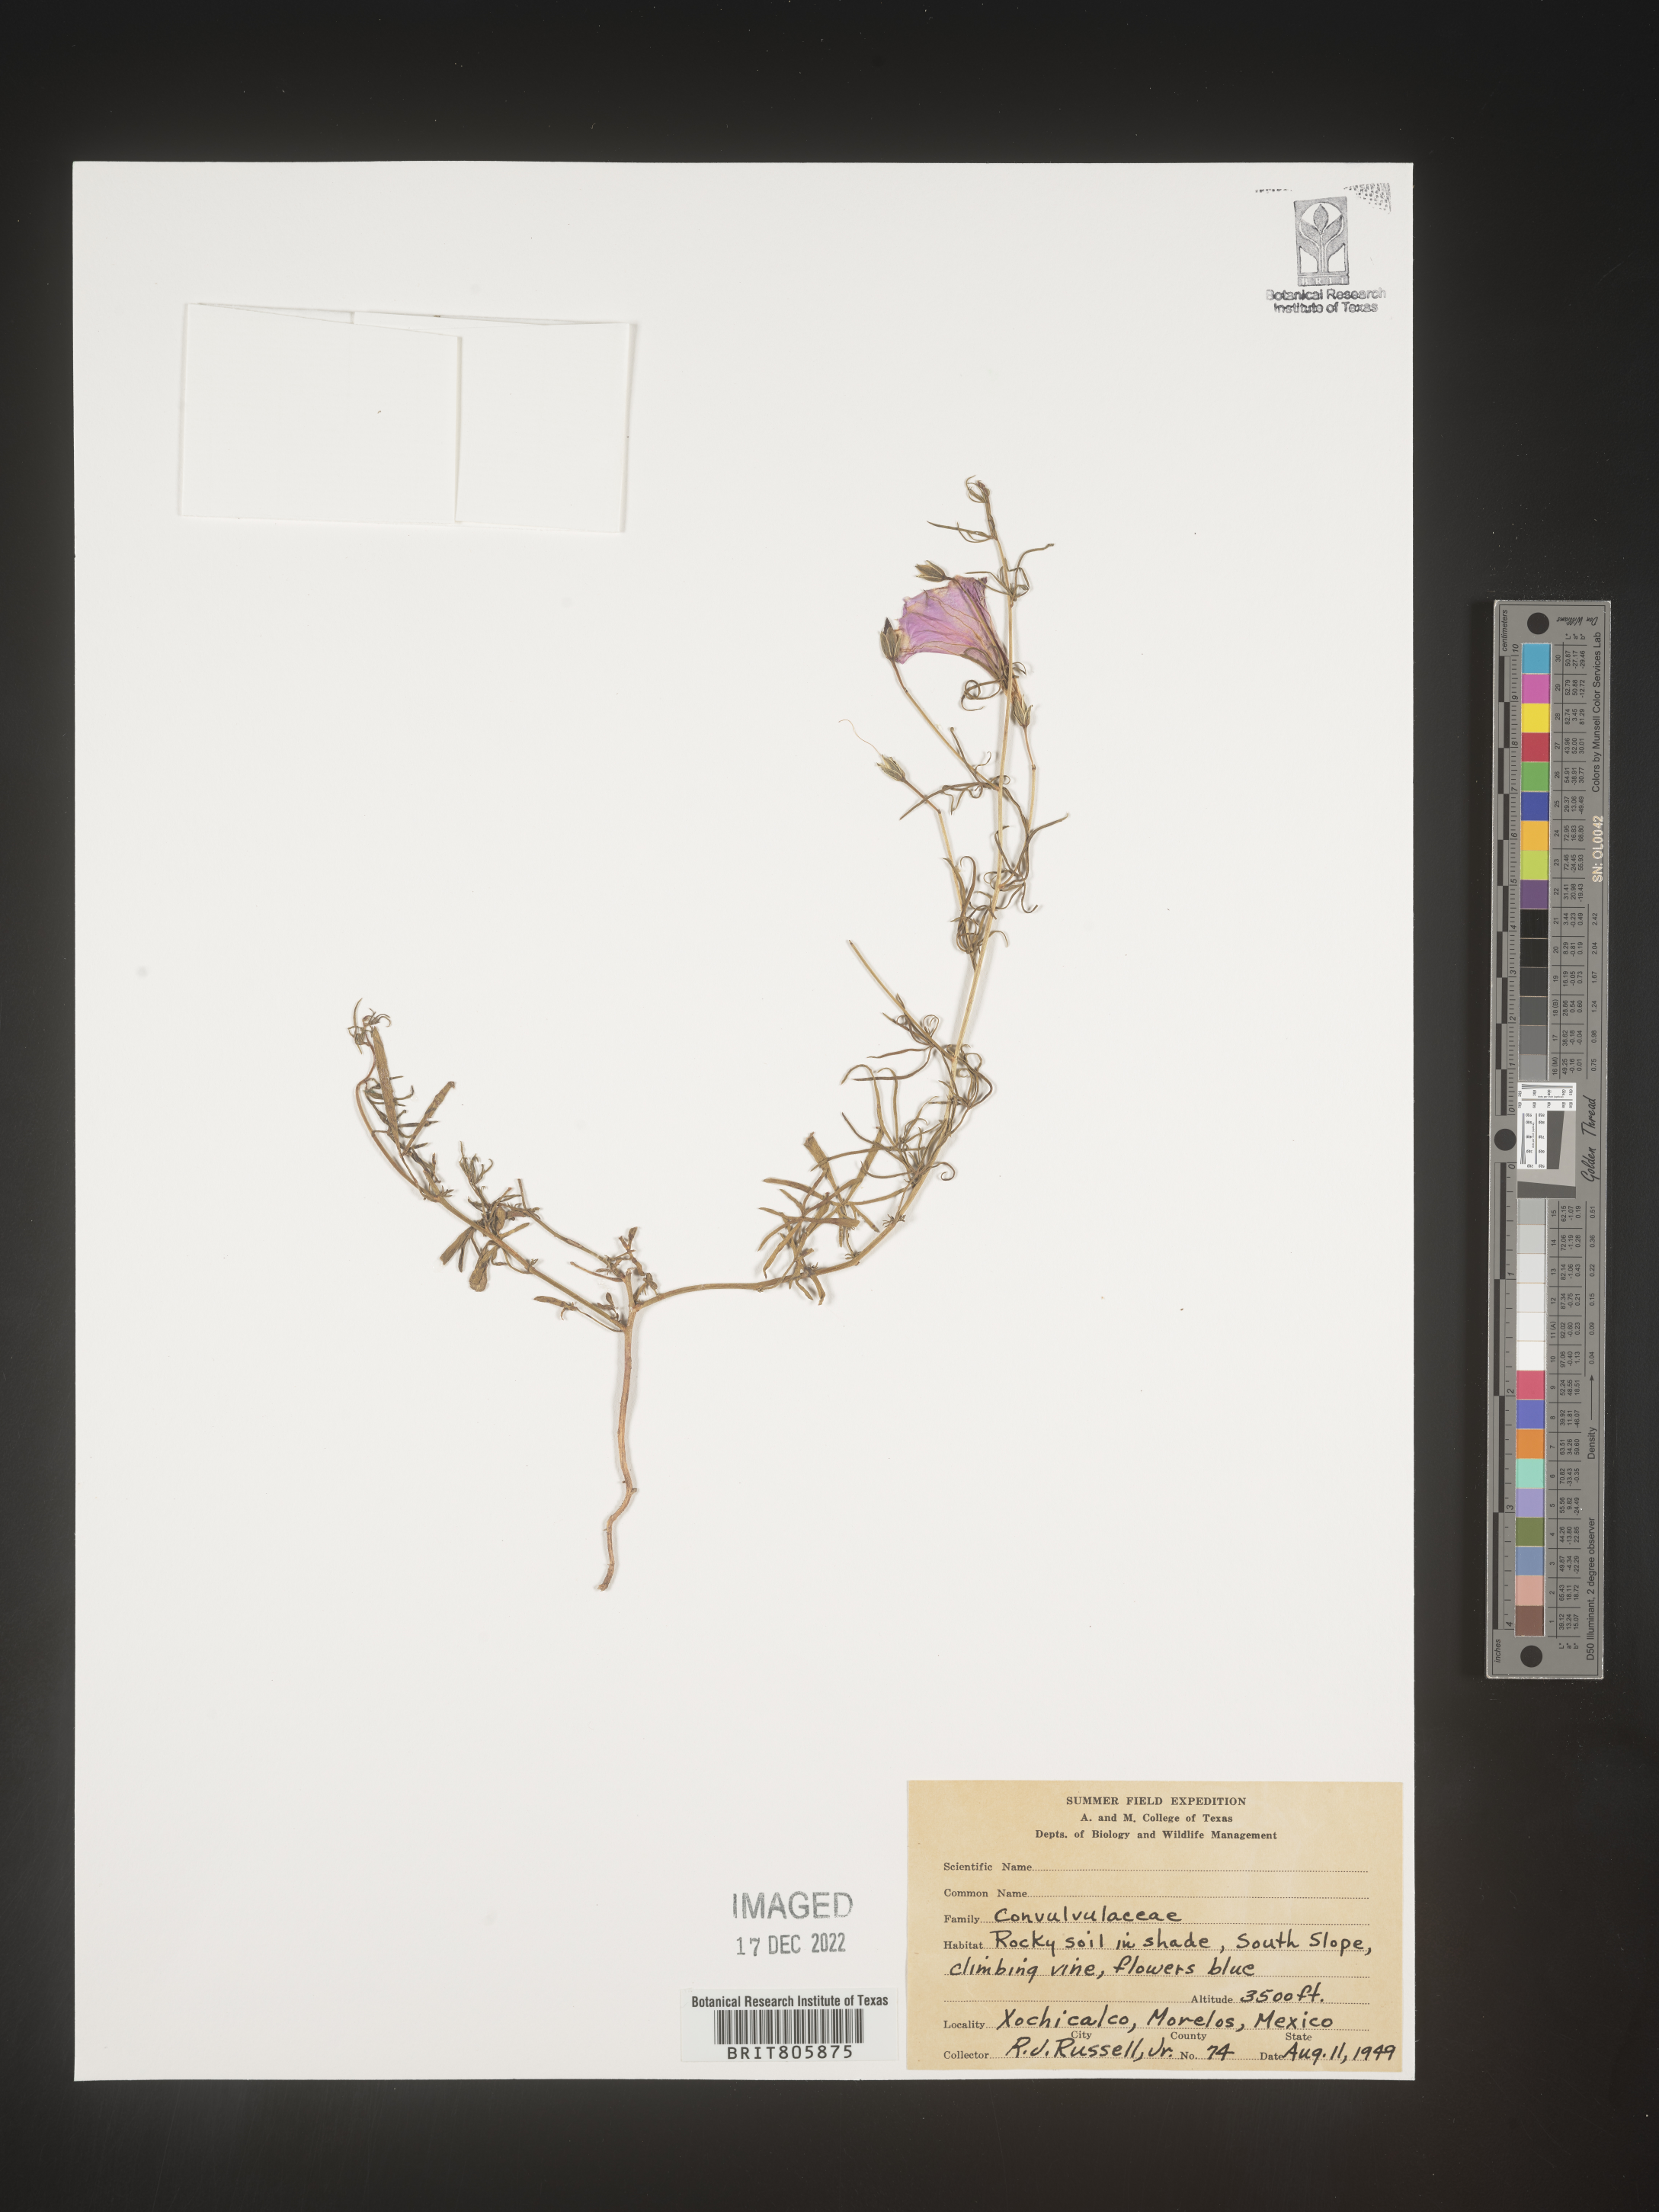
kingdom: Plantae
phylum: Tracheophyta
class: Magnoliopsida
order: Solanales
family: Convolvulaceae
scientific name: Convolvulaceae
